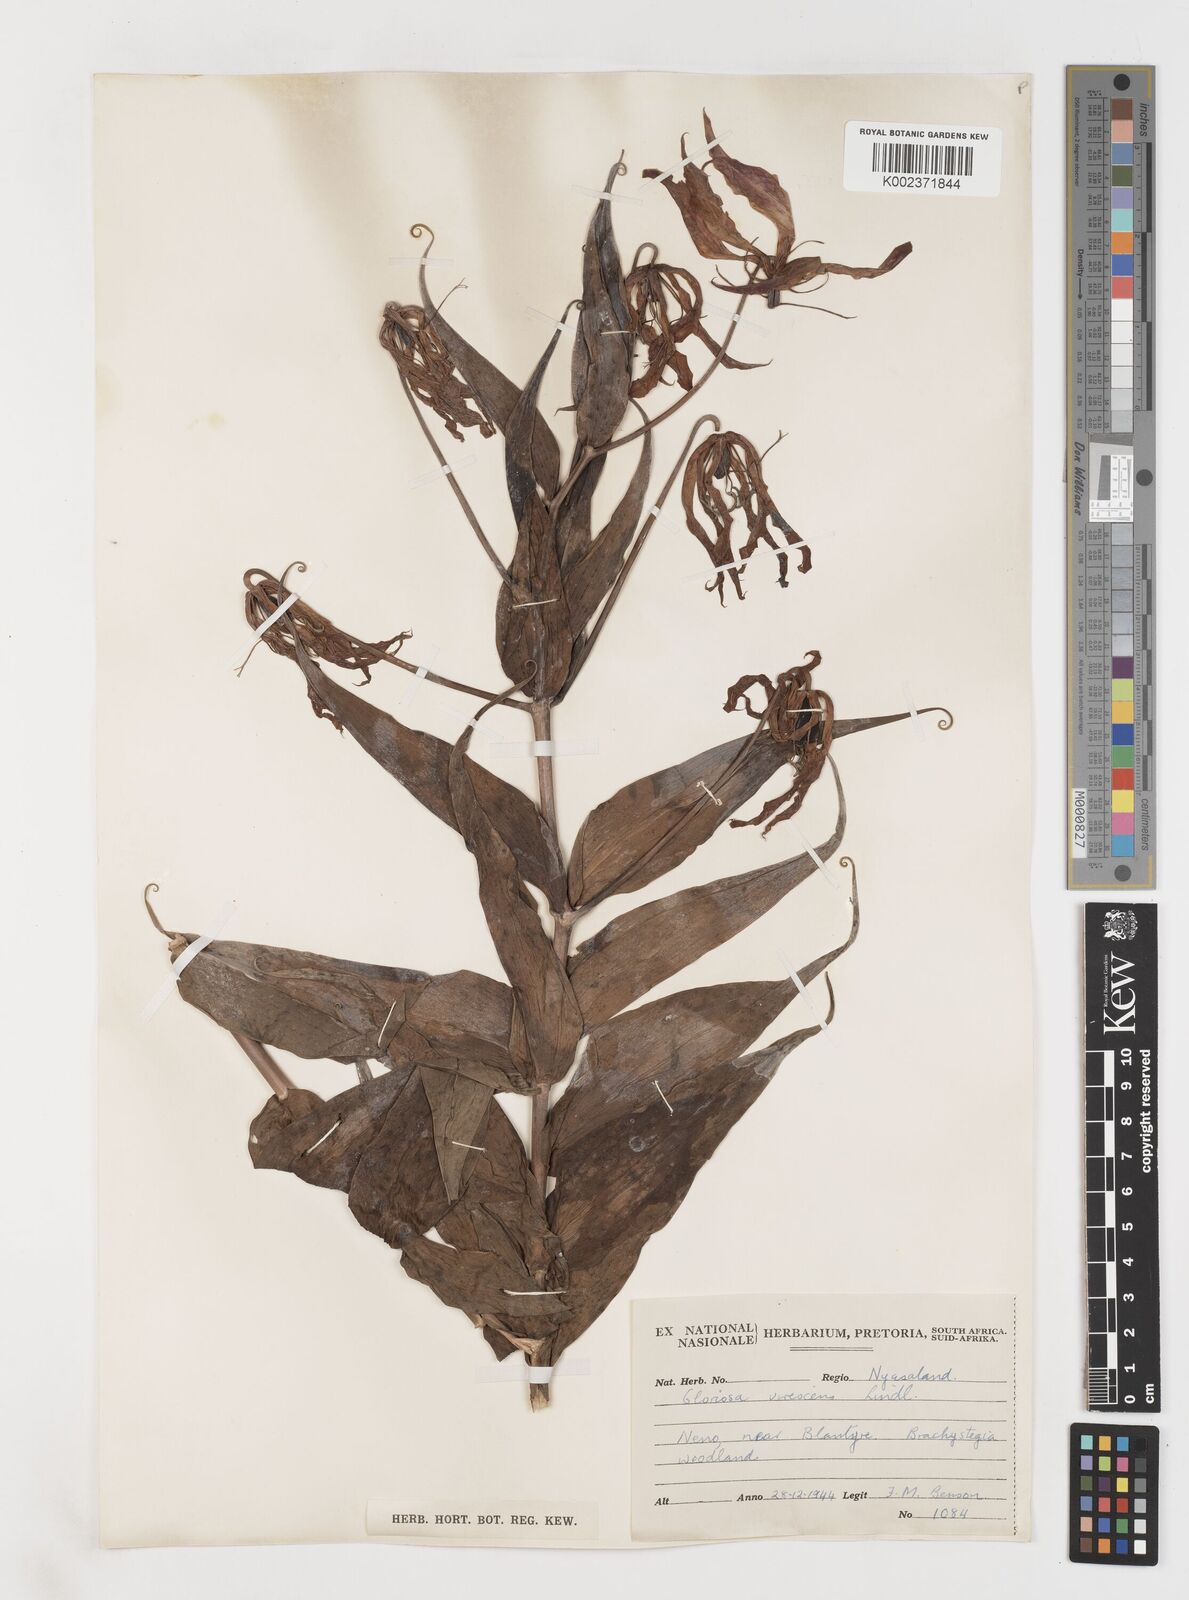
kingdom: Plantae
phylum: Tracheophyta
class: Liliopsida
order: Liliales
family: Colchicaceae
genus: Gloriosa
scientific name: Gloriosa simplex
